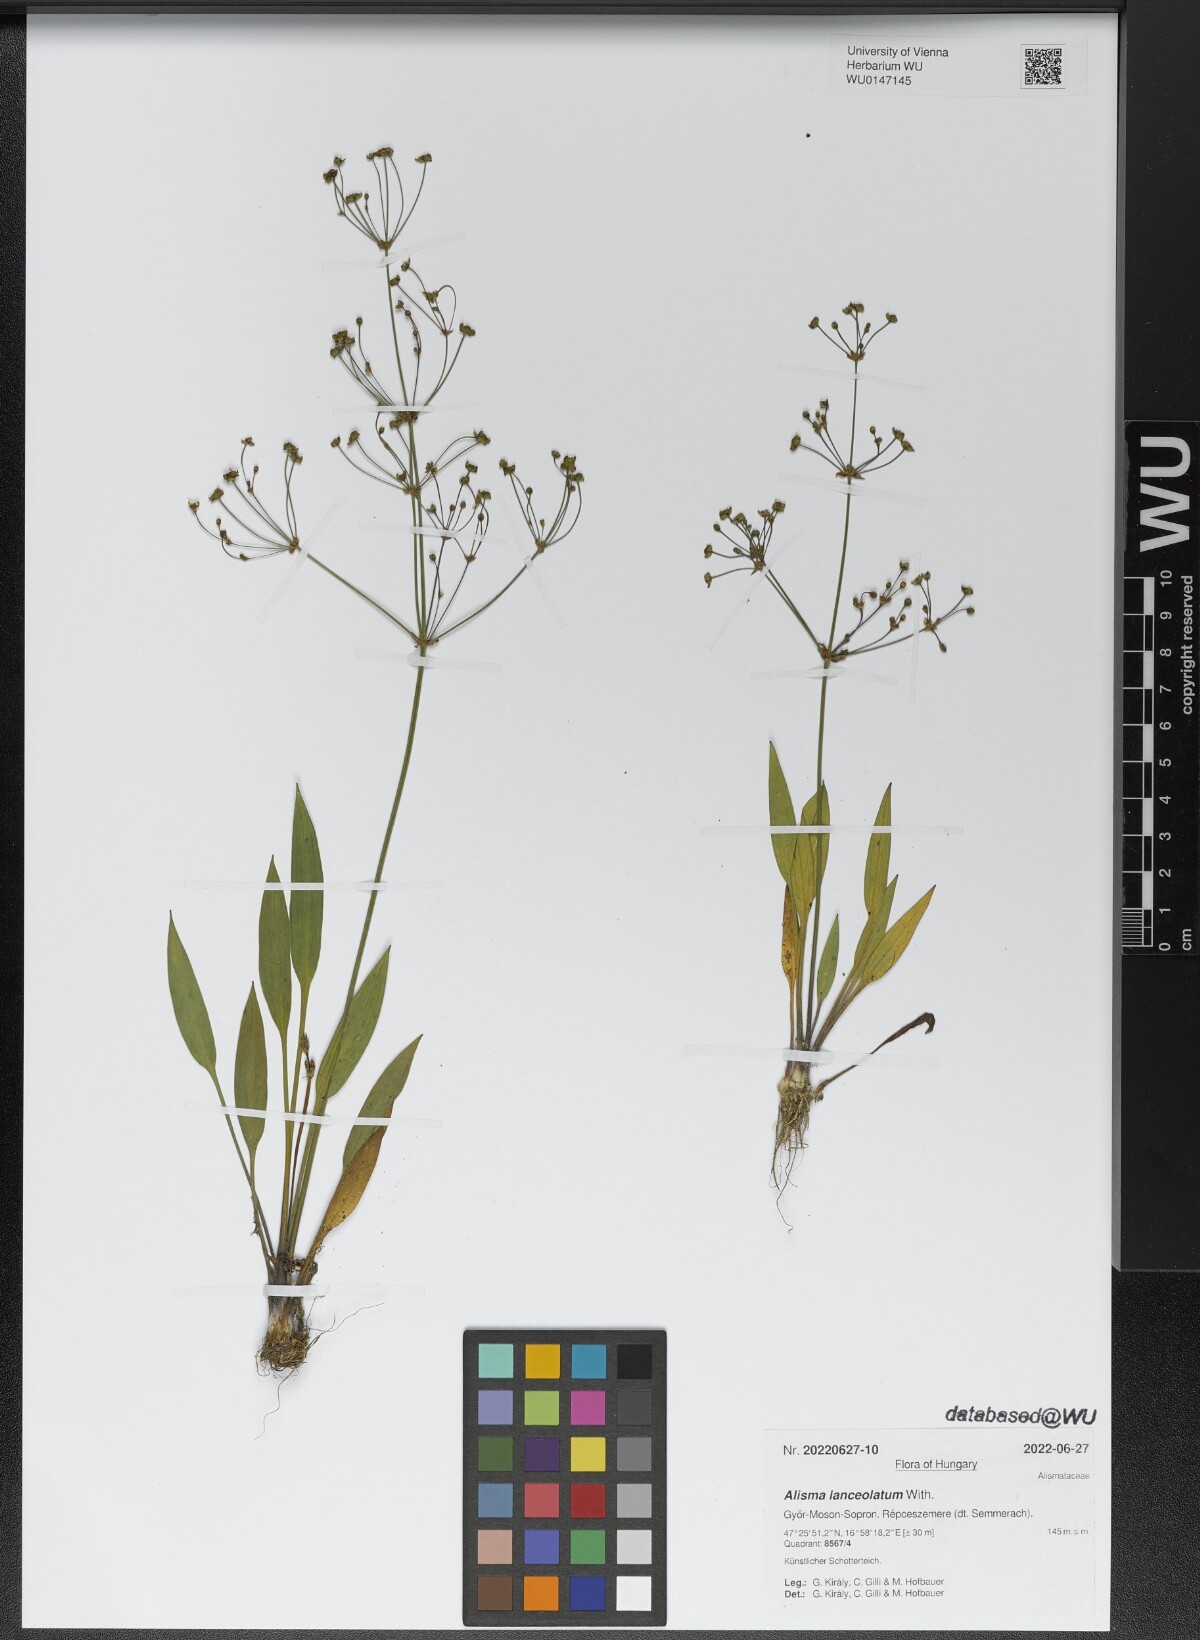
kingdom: Plantae
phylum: Tracheophyta
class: Liliopsida
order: Alismatales
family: Alismataceae
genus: Alisma
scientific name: Alisma lanceolatum
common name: Narrow-leaved water-plantain
